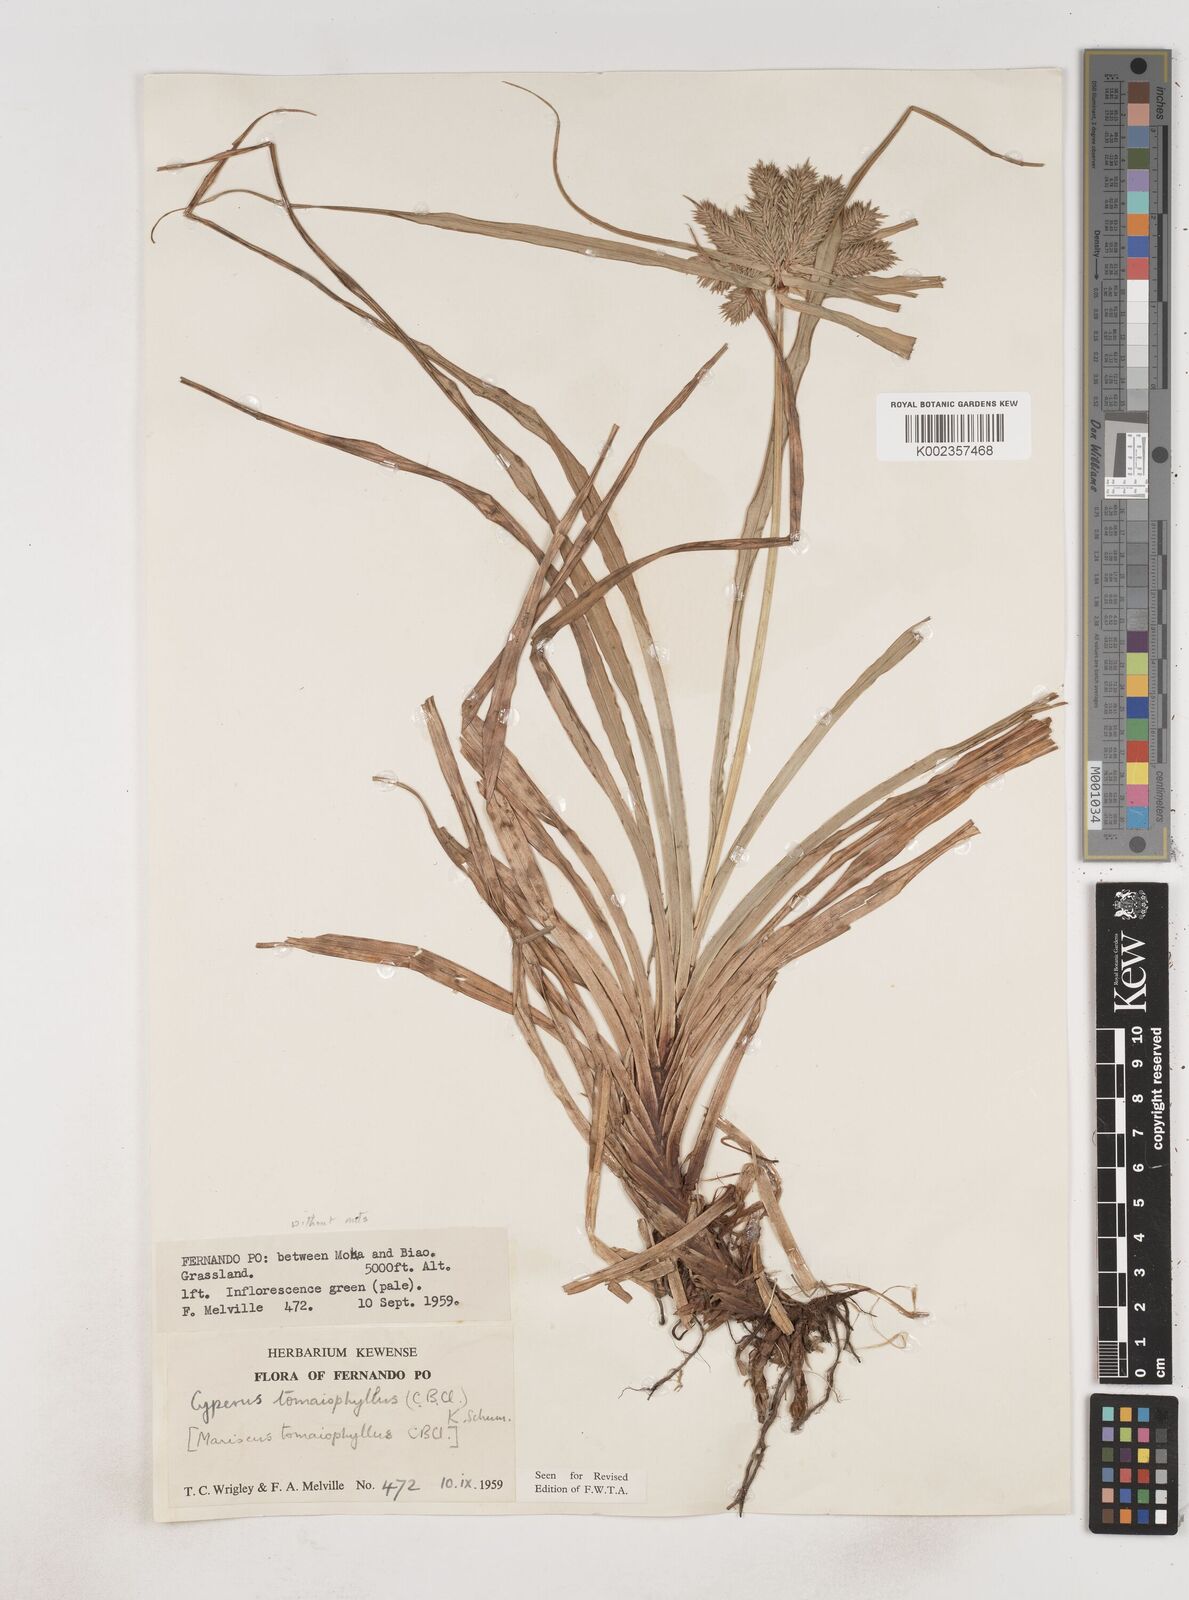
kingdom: Plantae
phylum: Tracheophyta
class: Liliopsida
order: Poales
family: Cyperaceae
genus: Cyperus
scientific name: Cyperus tomaiophyllus
